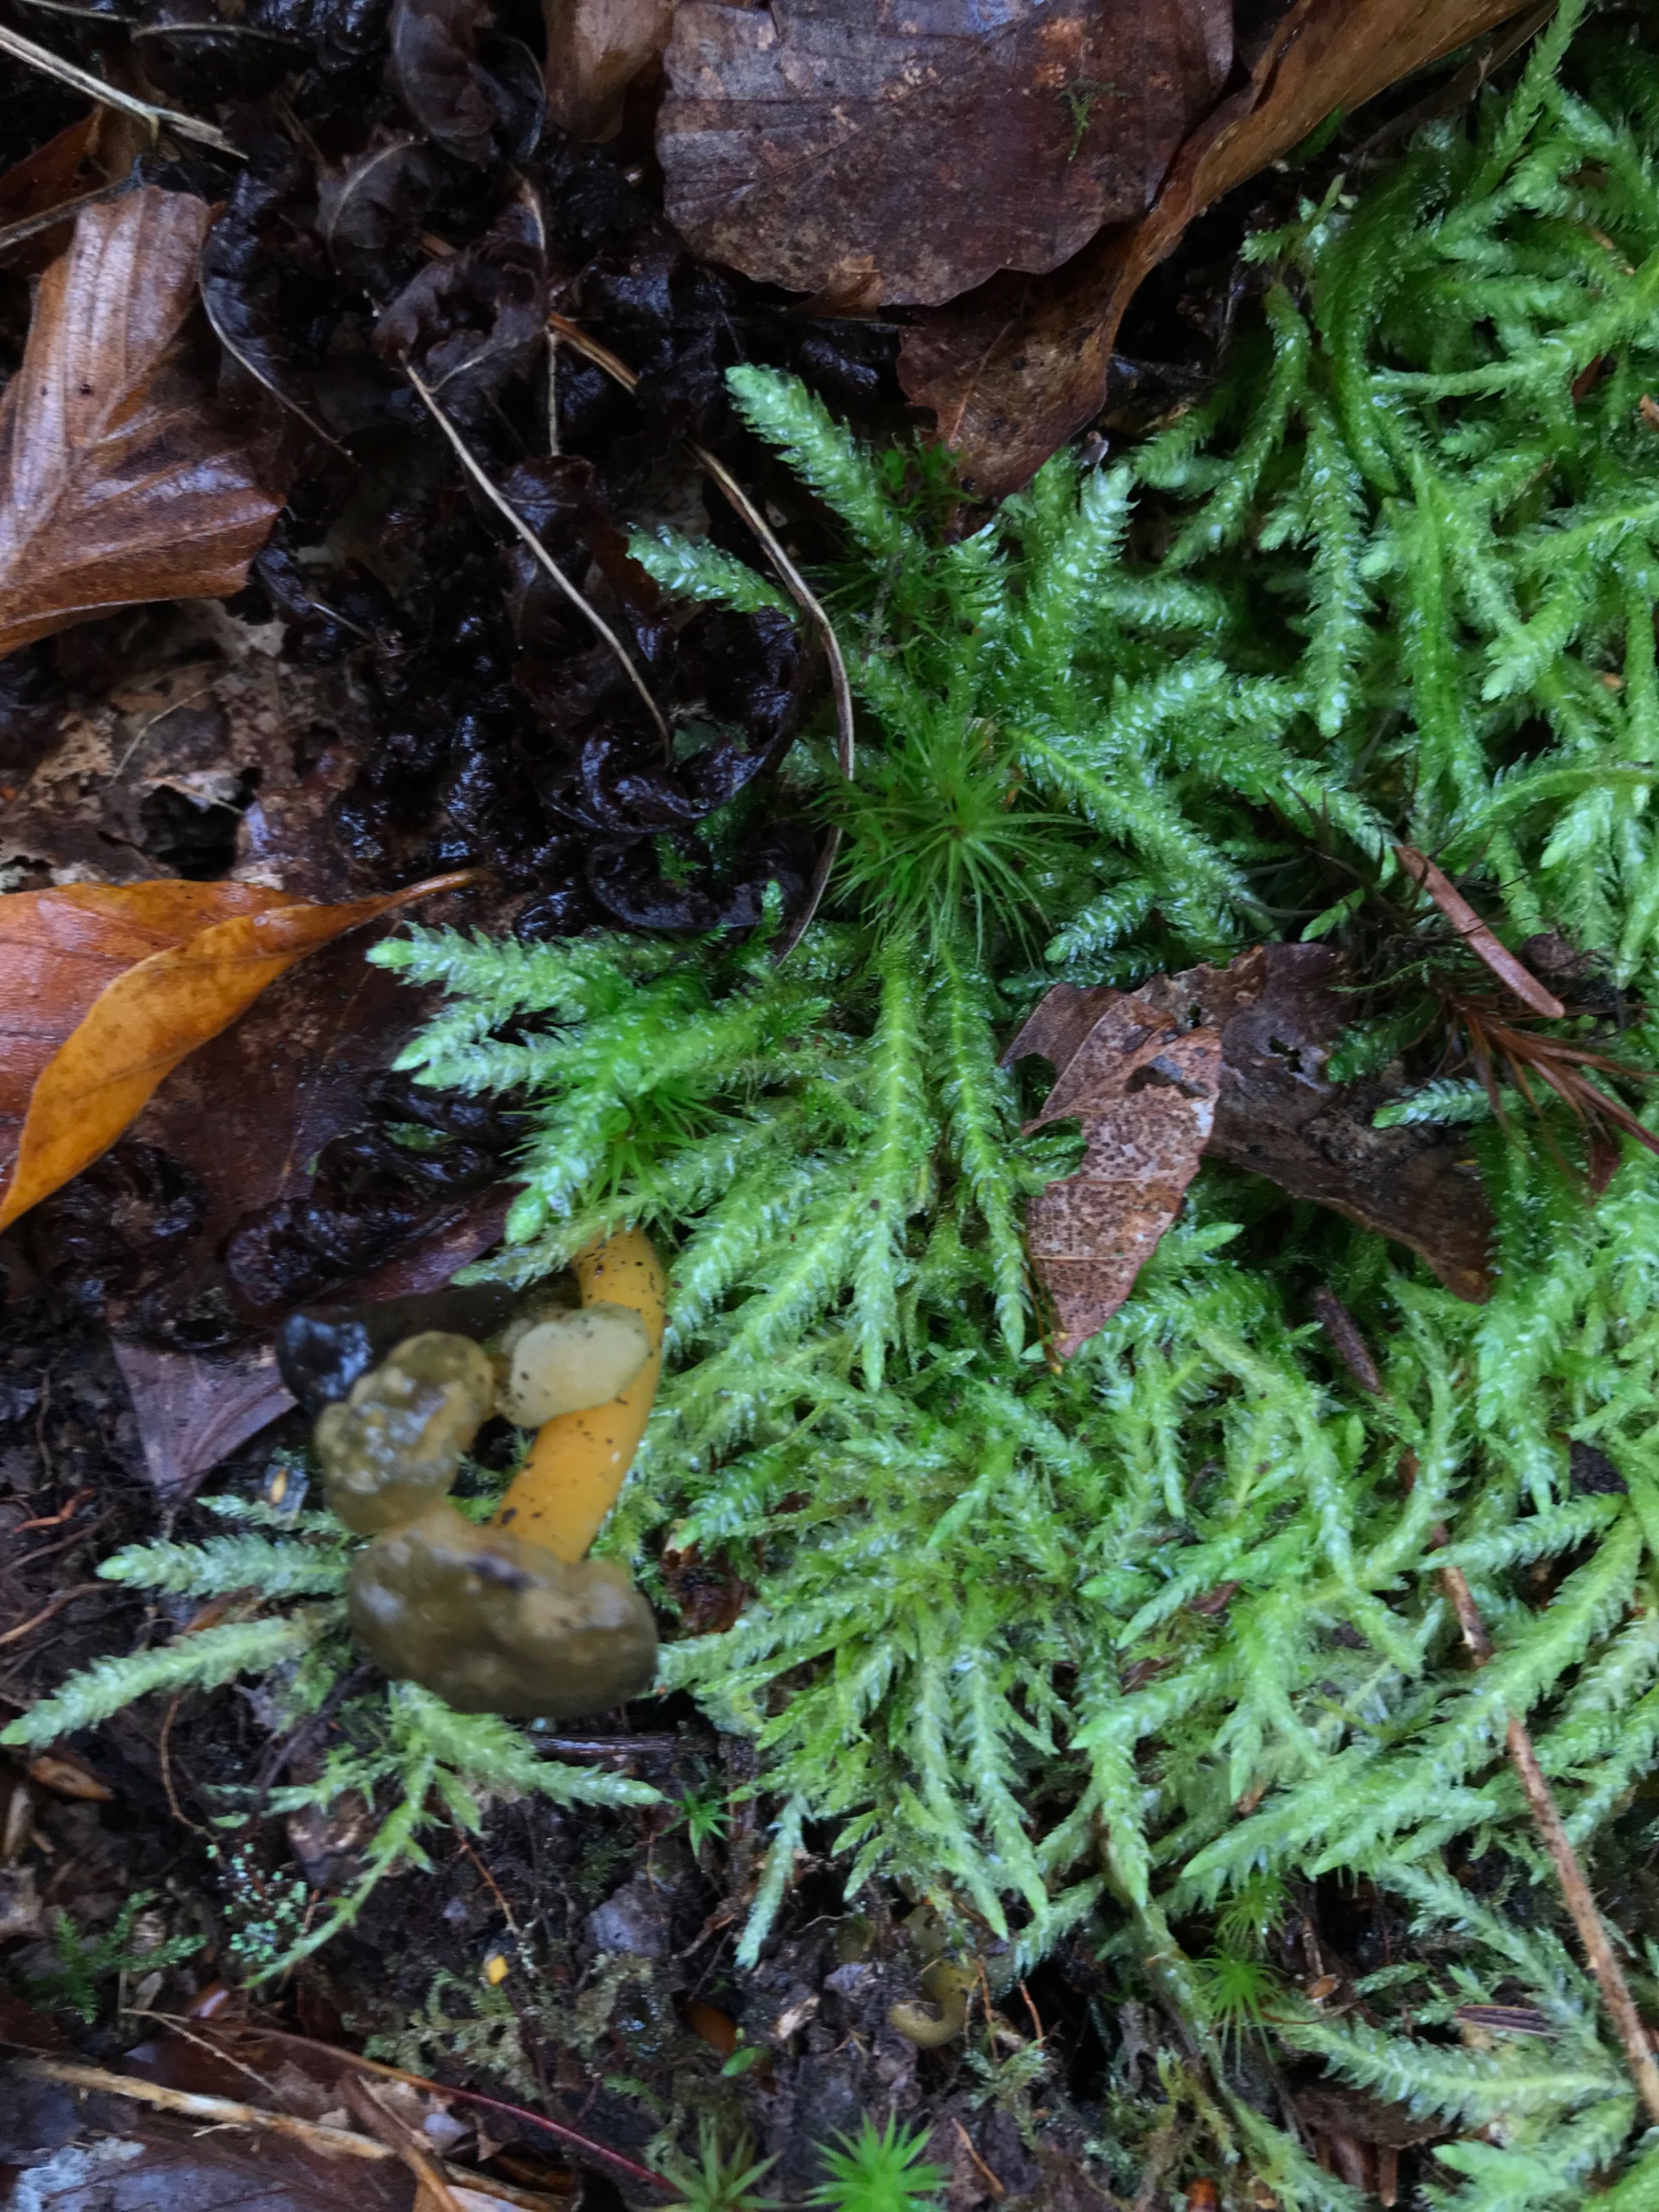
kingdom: Plantae
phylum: Bryophyta
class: Bryopsida
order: Hypnales
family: Plagiotheciaceae
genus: Plagiothecium
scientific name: Plagiothecium undulatum
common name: Bølget tæppemos
